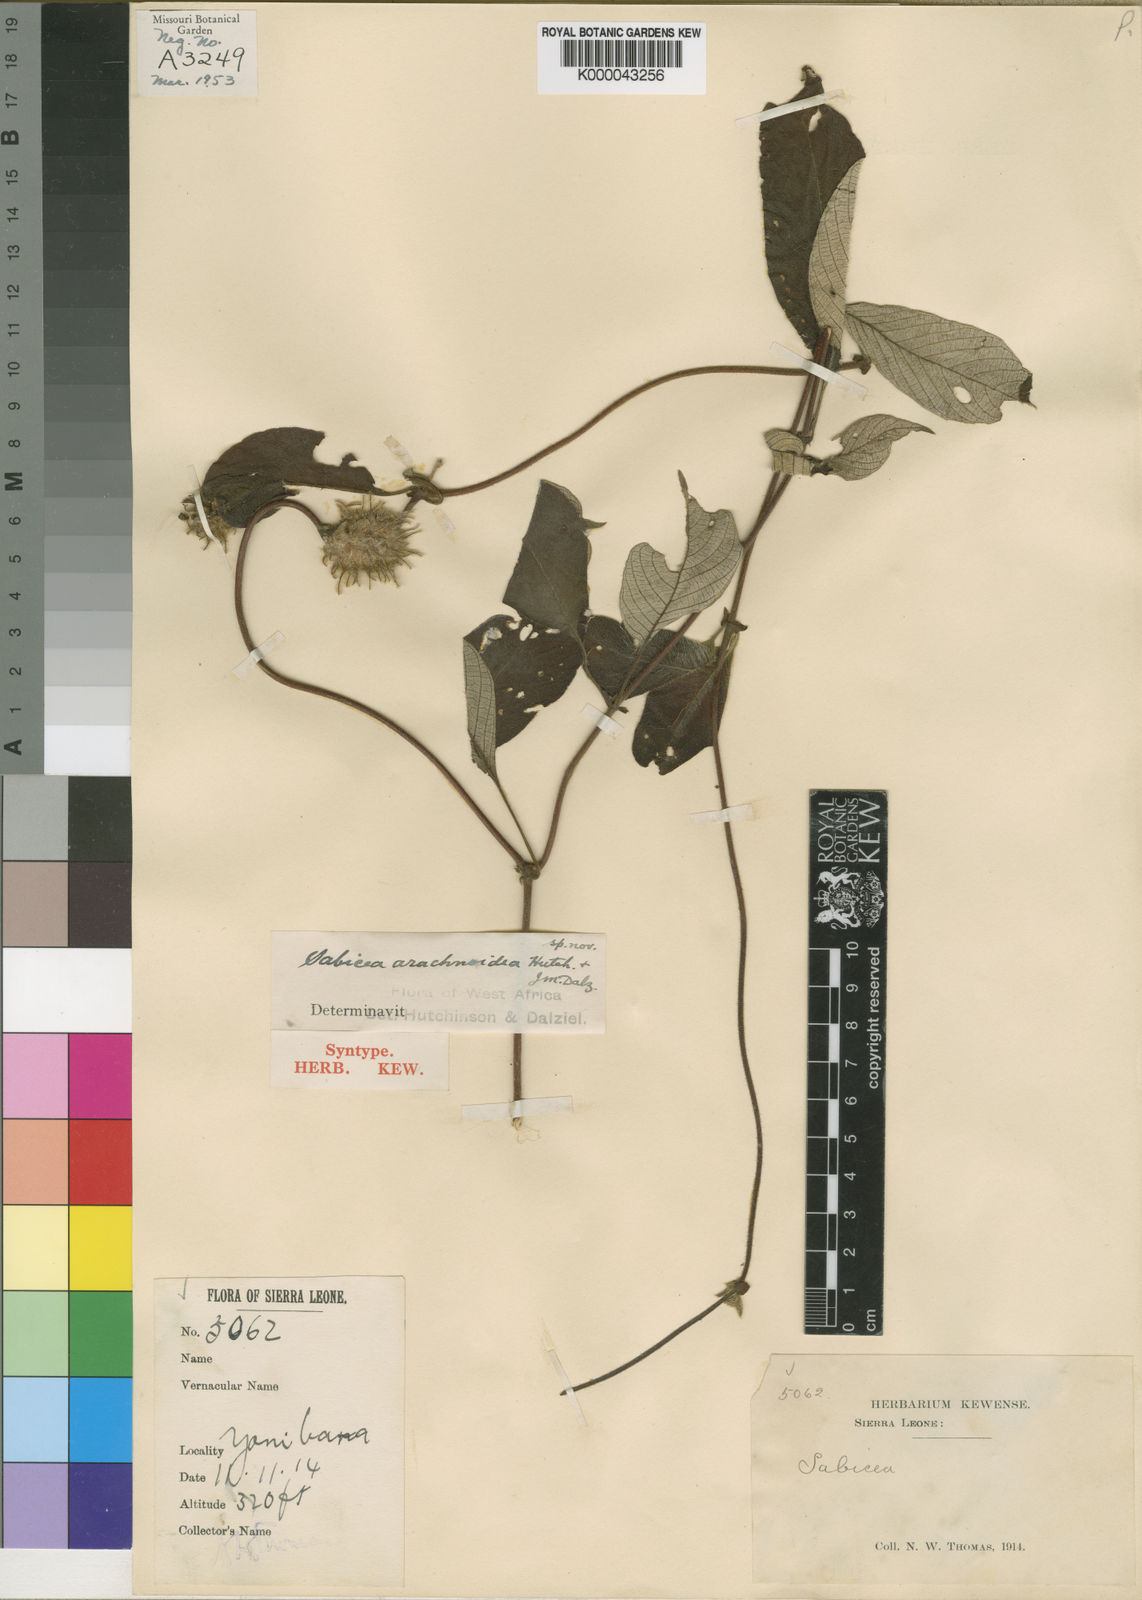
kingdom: Plantae
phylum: Tracheophyta
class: Magnoliopsida
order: Gentianales
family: Rubiaceae
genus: Sabicea
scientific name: Sabicea discolor
